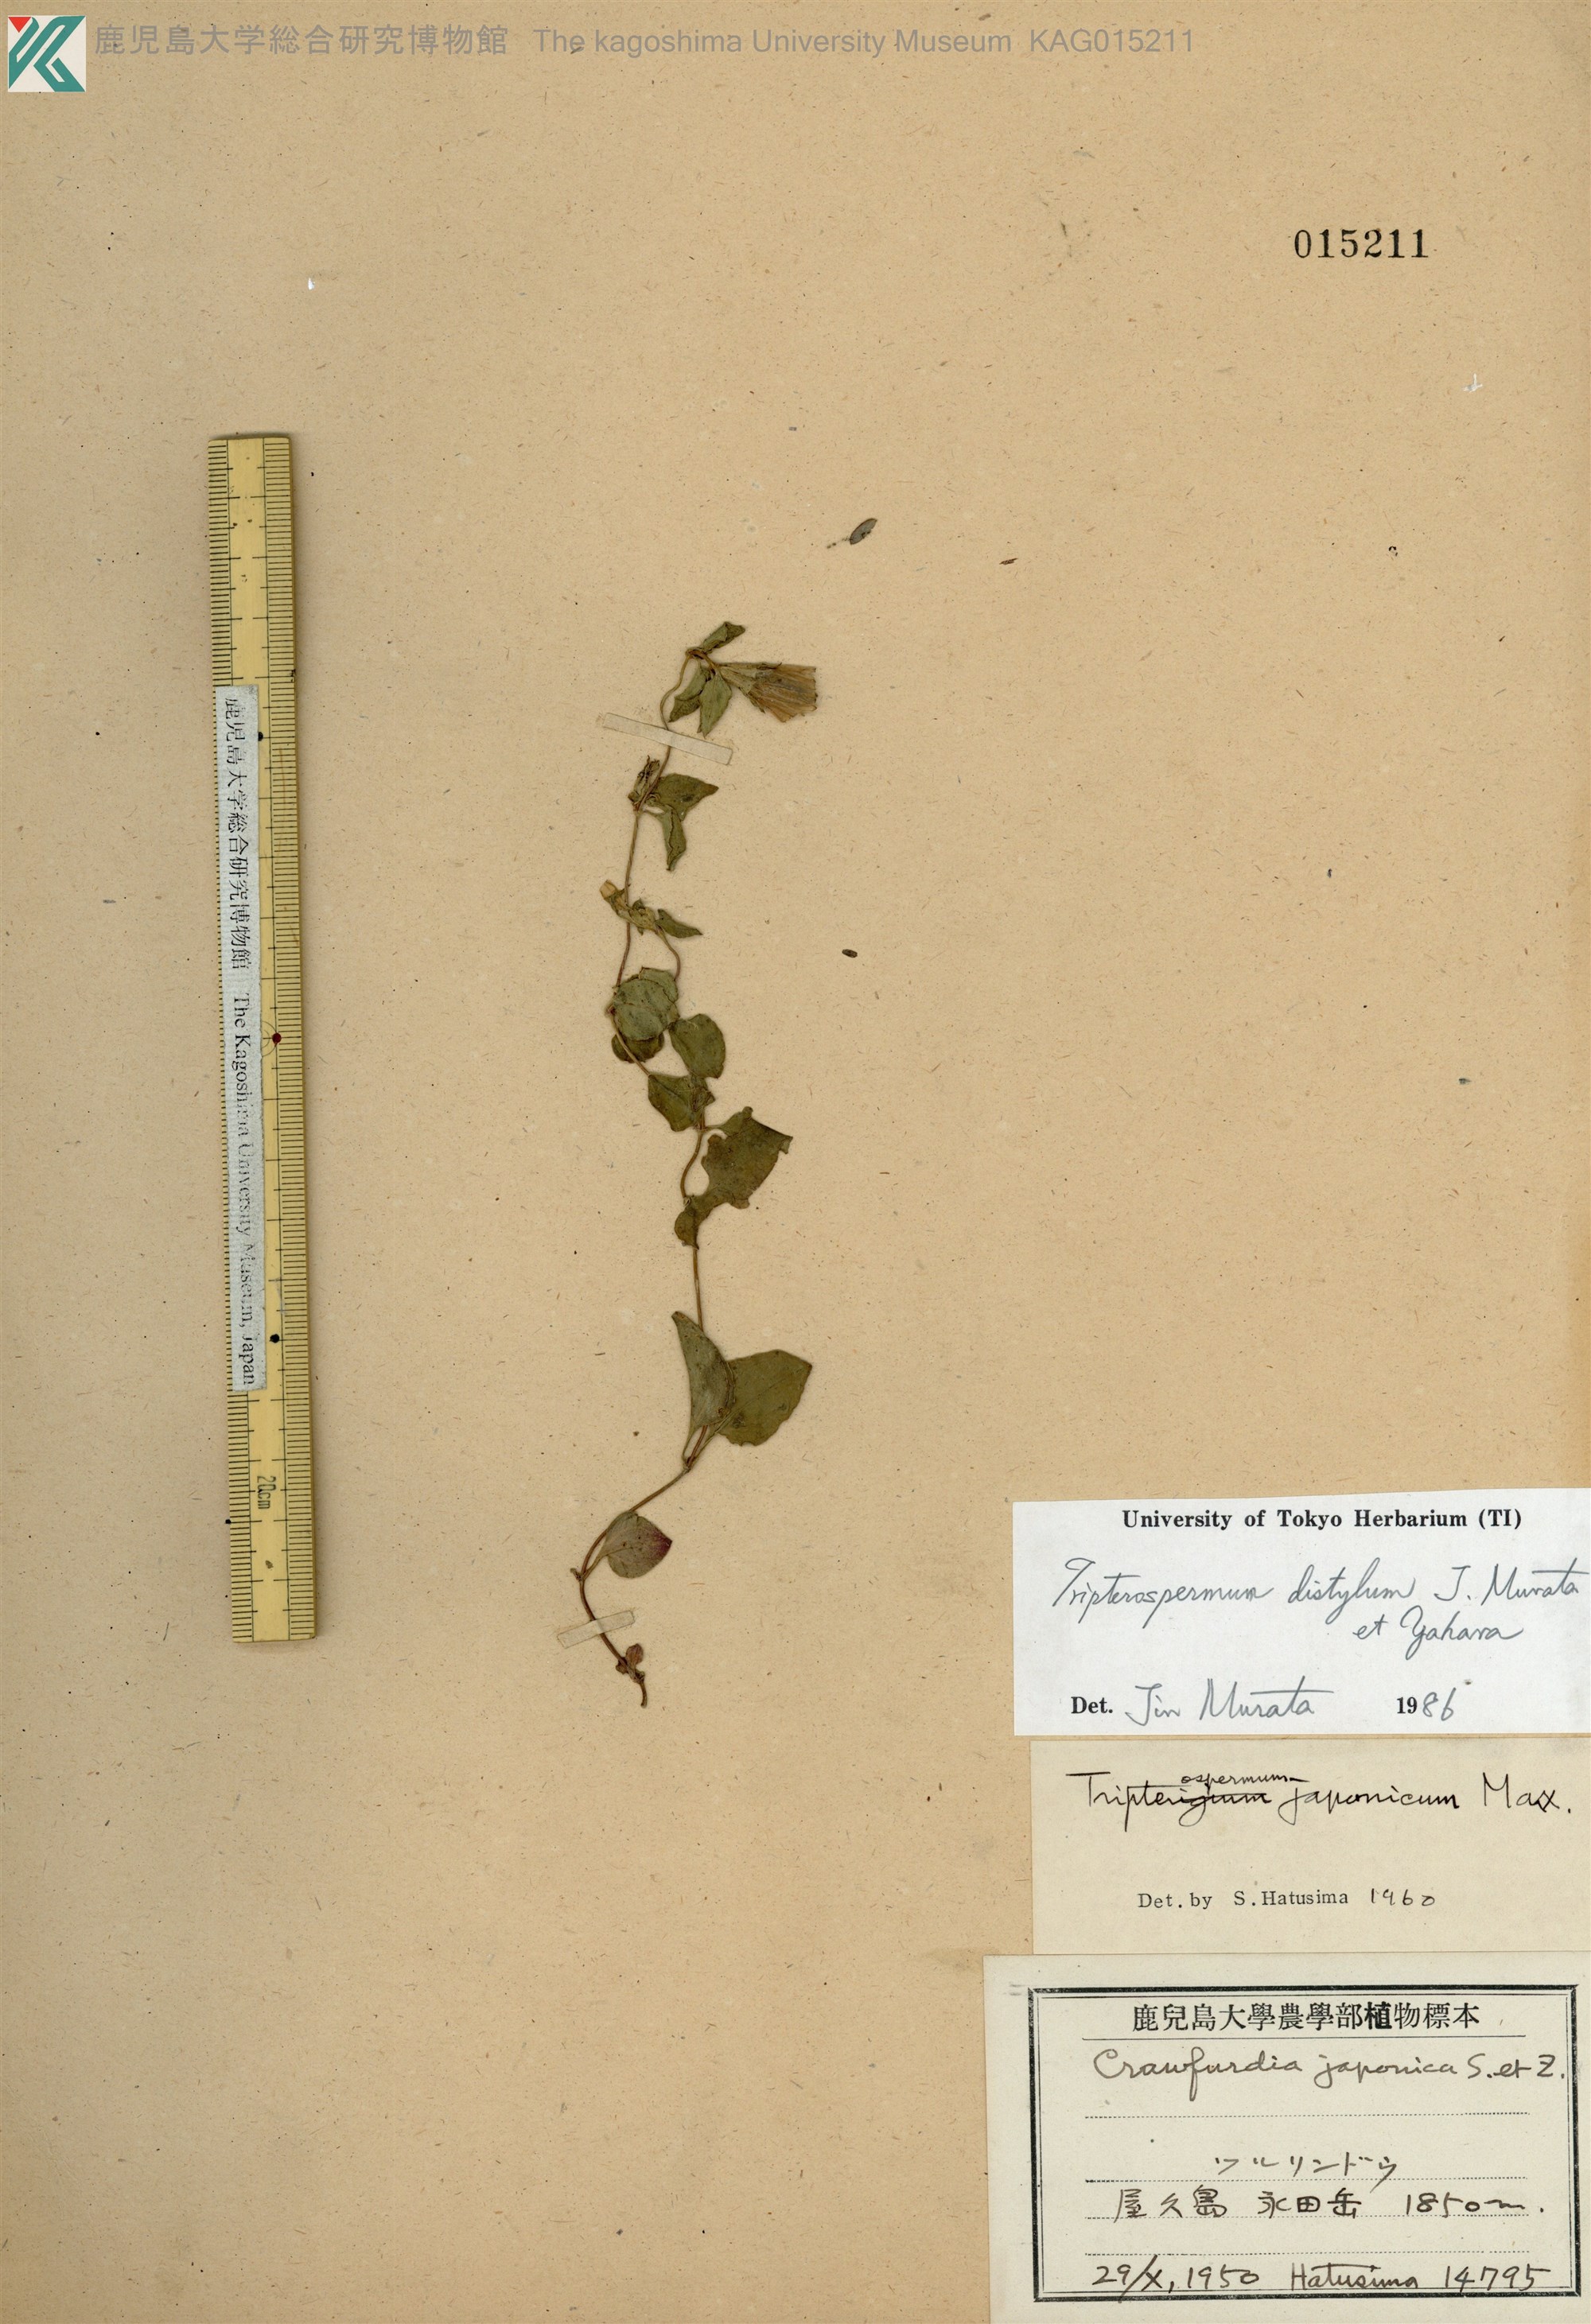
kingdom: Plantae
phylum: Tracheophyta
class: Magnoliopsida
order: Gentianales
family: Gentianaceae
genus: Tripterospermum
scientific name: Tripterospermum distylum
